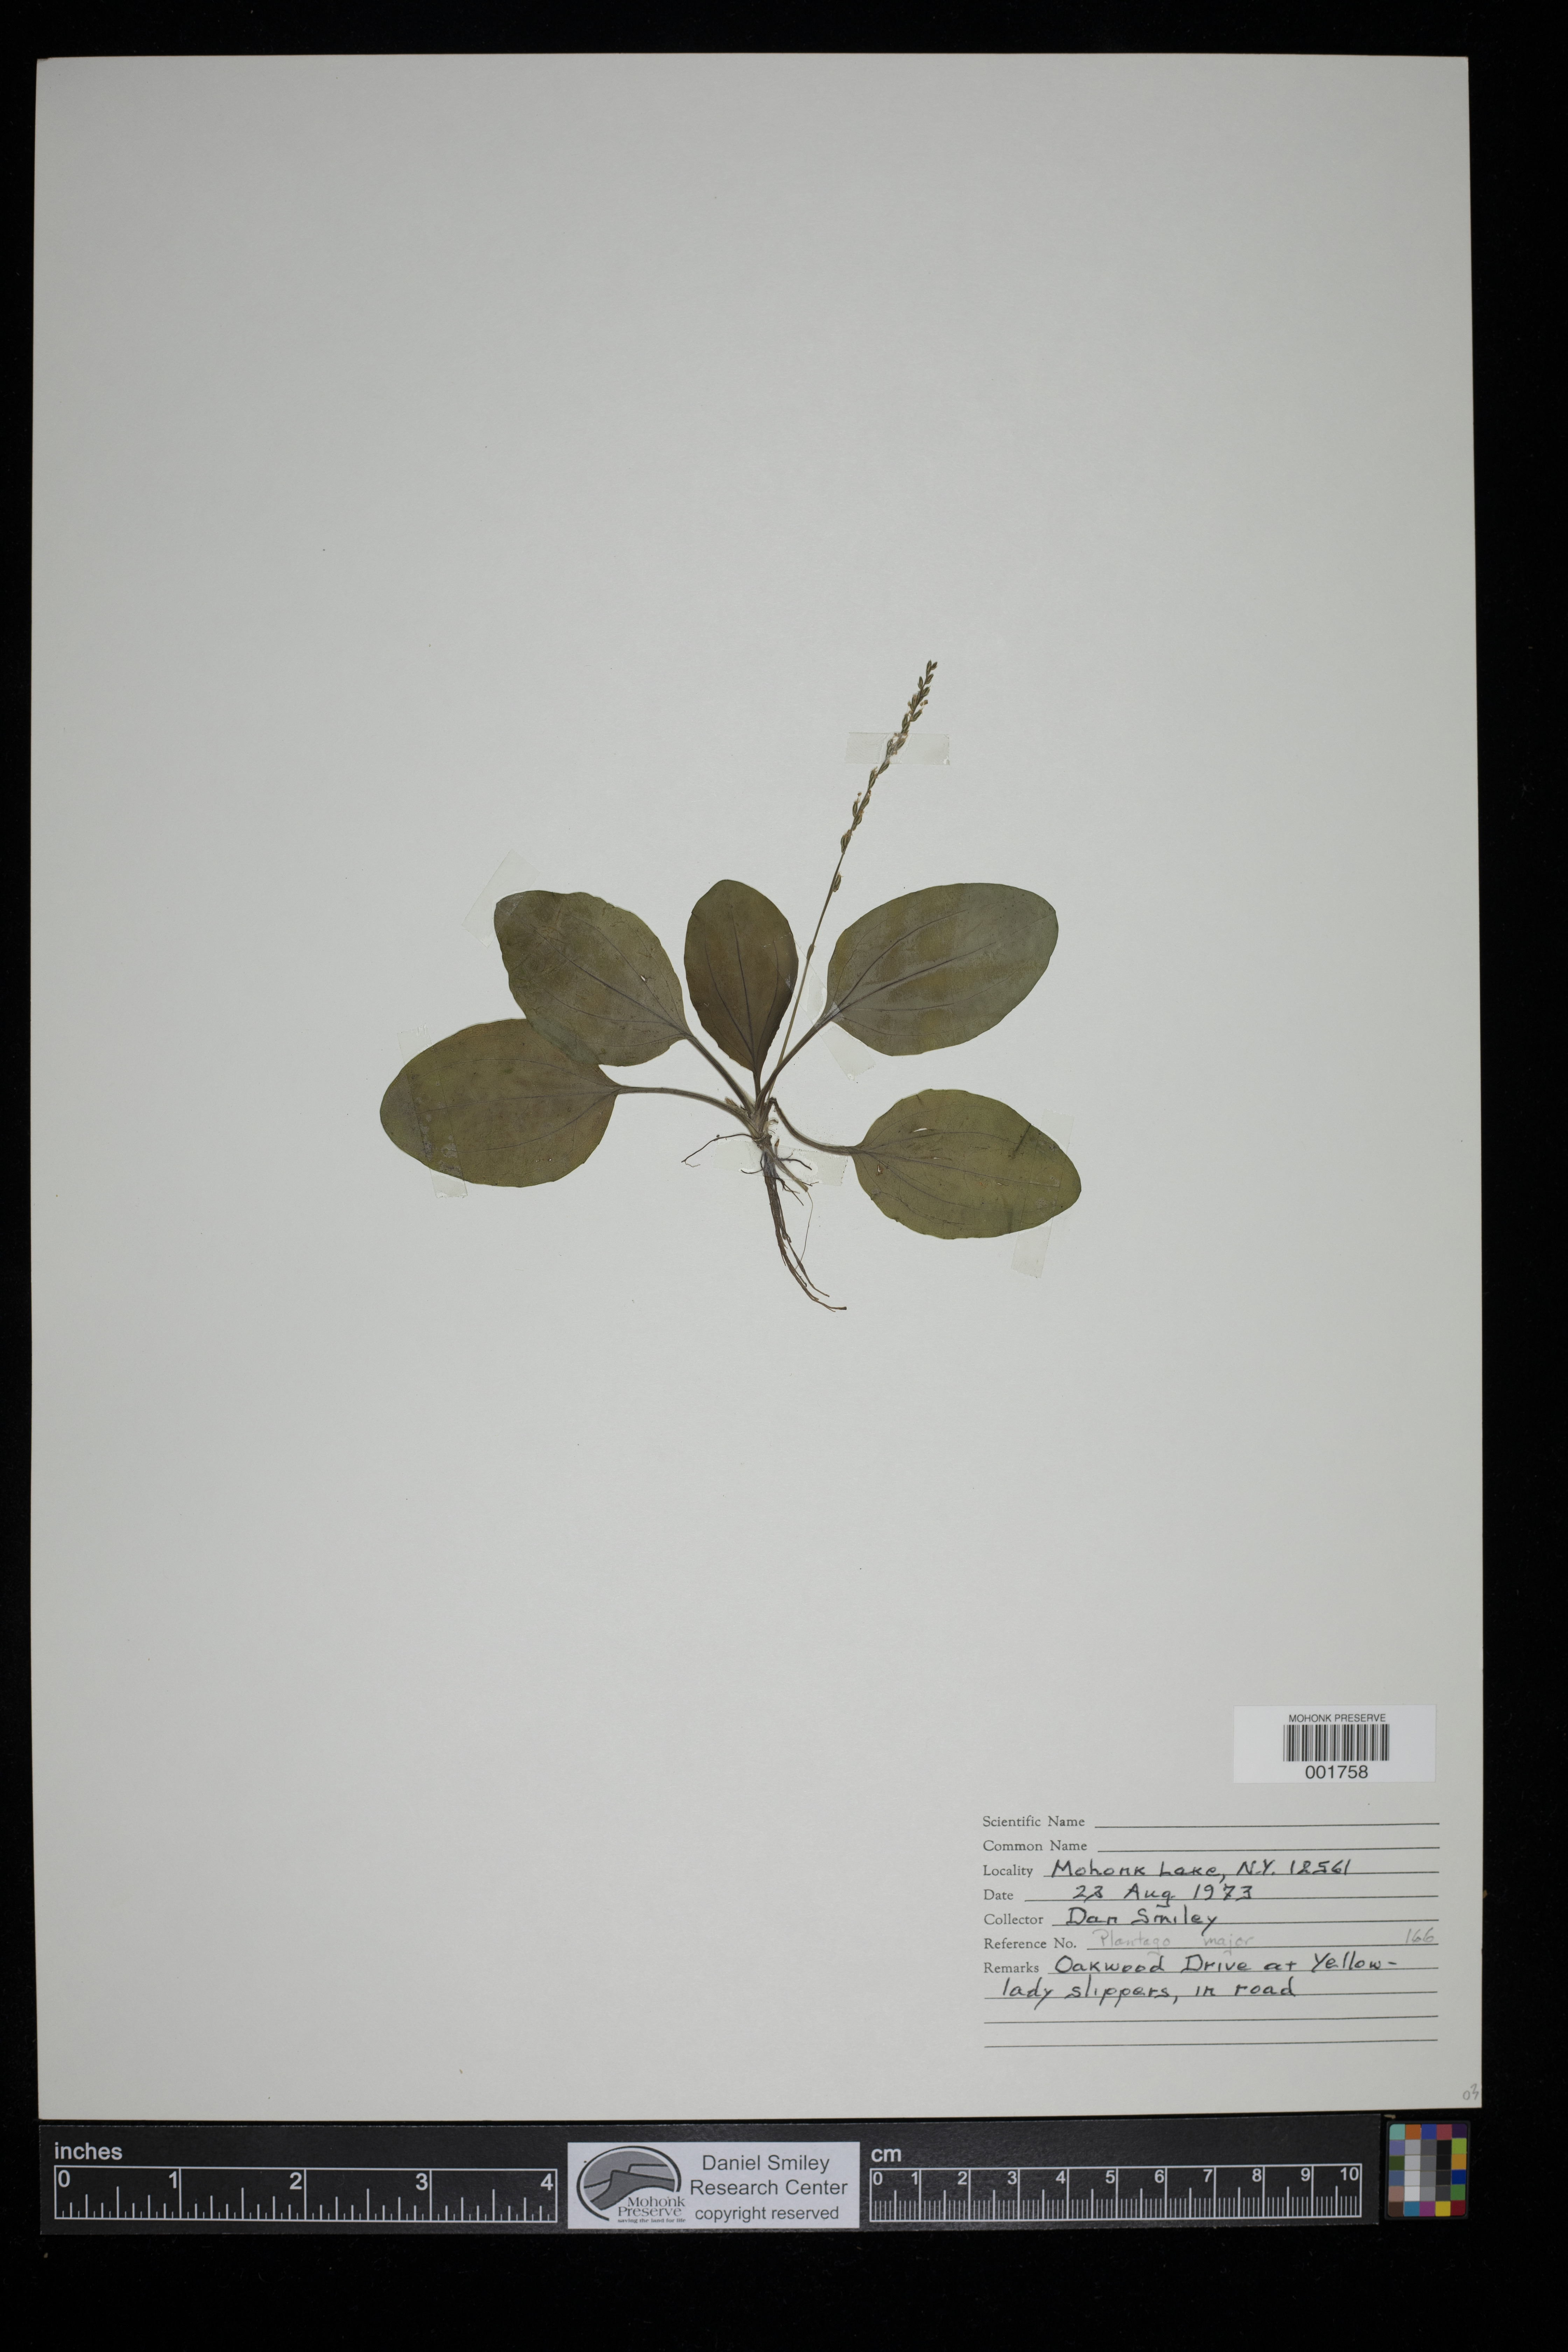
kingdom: Plantae
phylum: Tracheophyta
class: Magnoliopsida
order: Lamiales
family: Plantaginaceae
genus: Plantago
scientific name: Plantago major
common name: Common plantain
